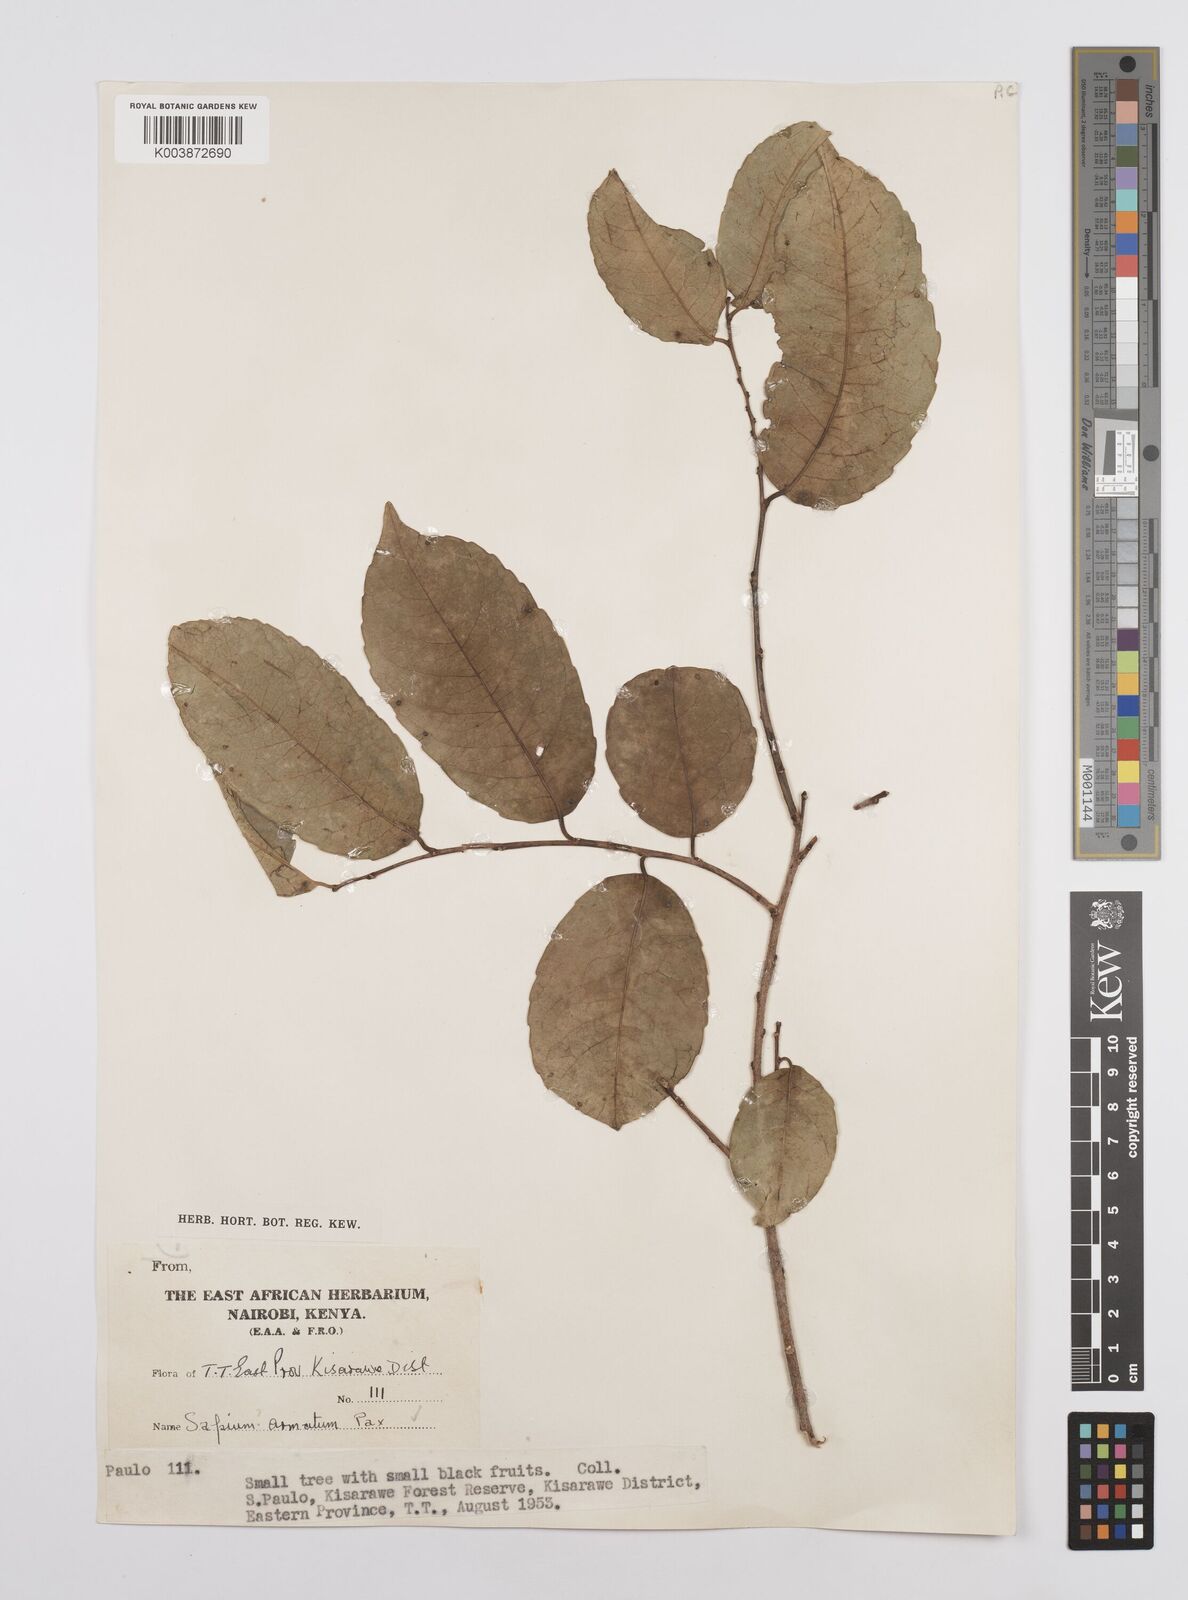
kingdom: Plantae
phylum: Tracheophyta
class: Magnoliopsida
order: Malpighiales
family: Euphorbiaceae
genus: Sclerocroton
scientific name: Sclerocroton integerrimus
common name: Duiker berry
